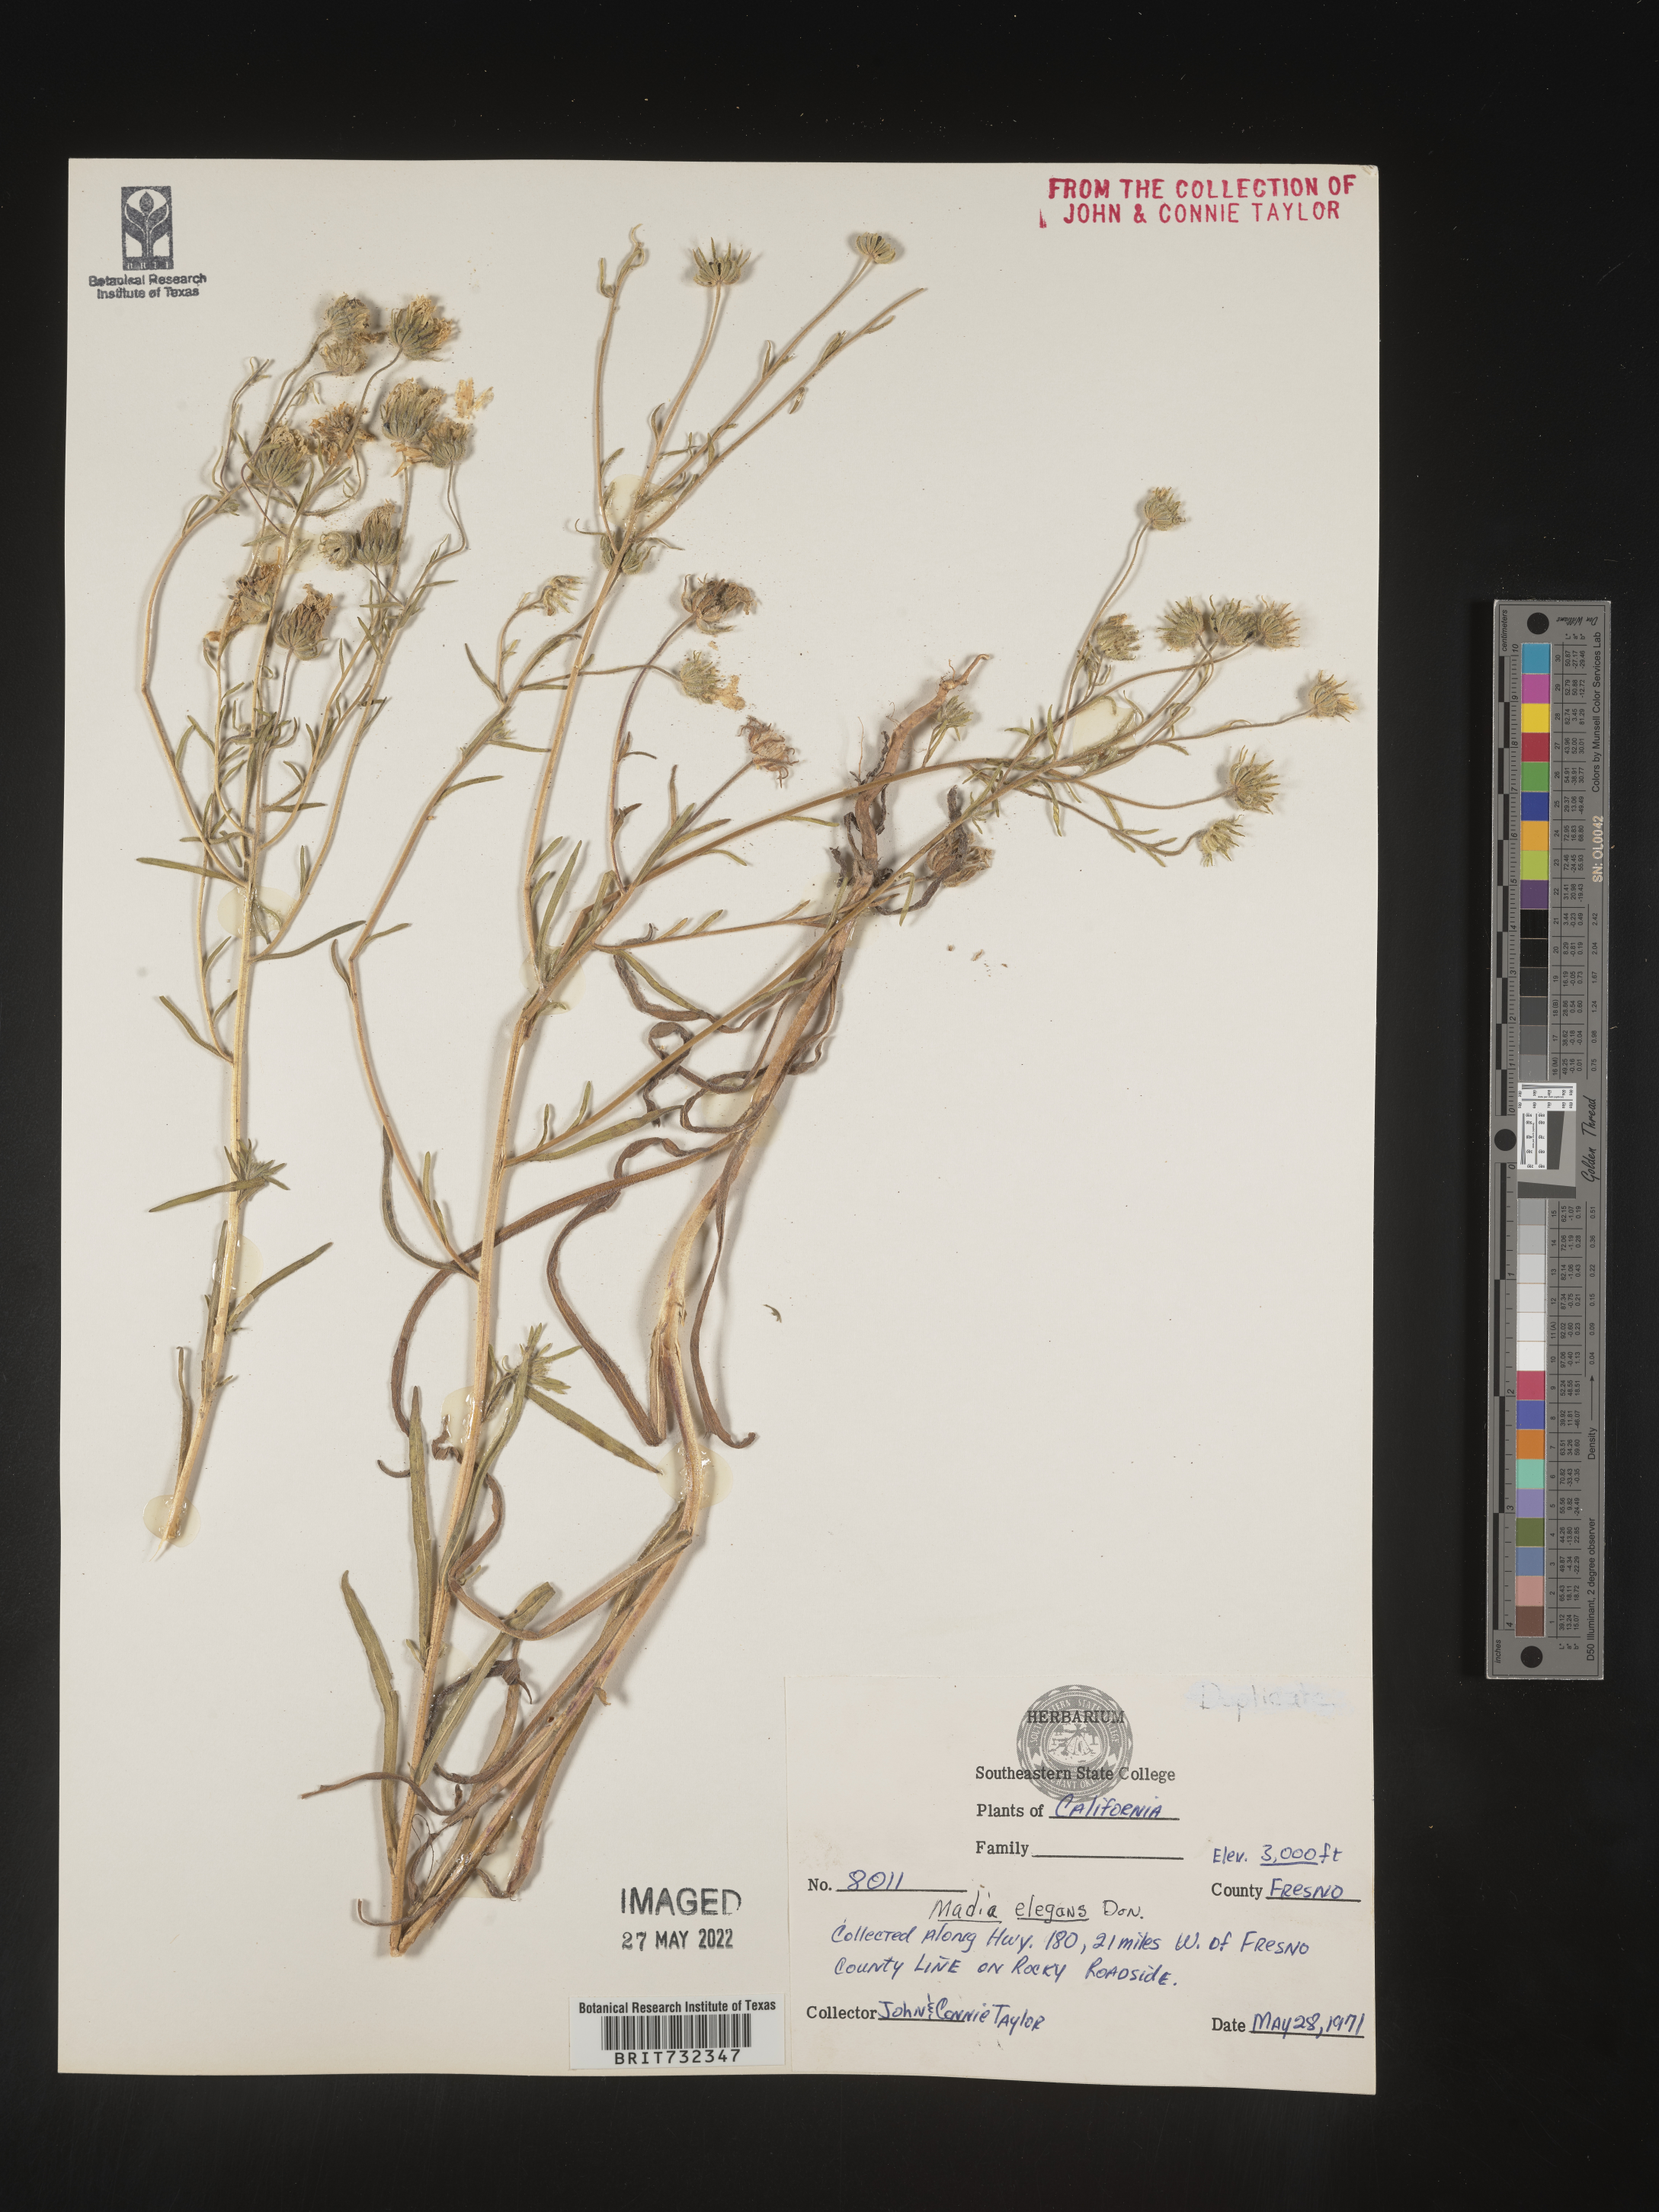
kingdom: Plantae
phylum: Tracheophyta
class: Magnoliopsida
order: Asterales
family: Asteraceae
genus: Madia
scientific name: Madia
